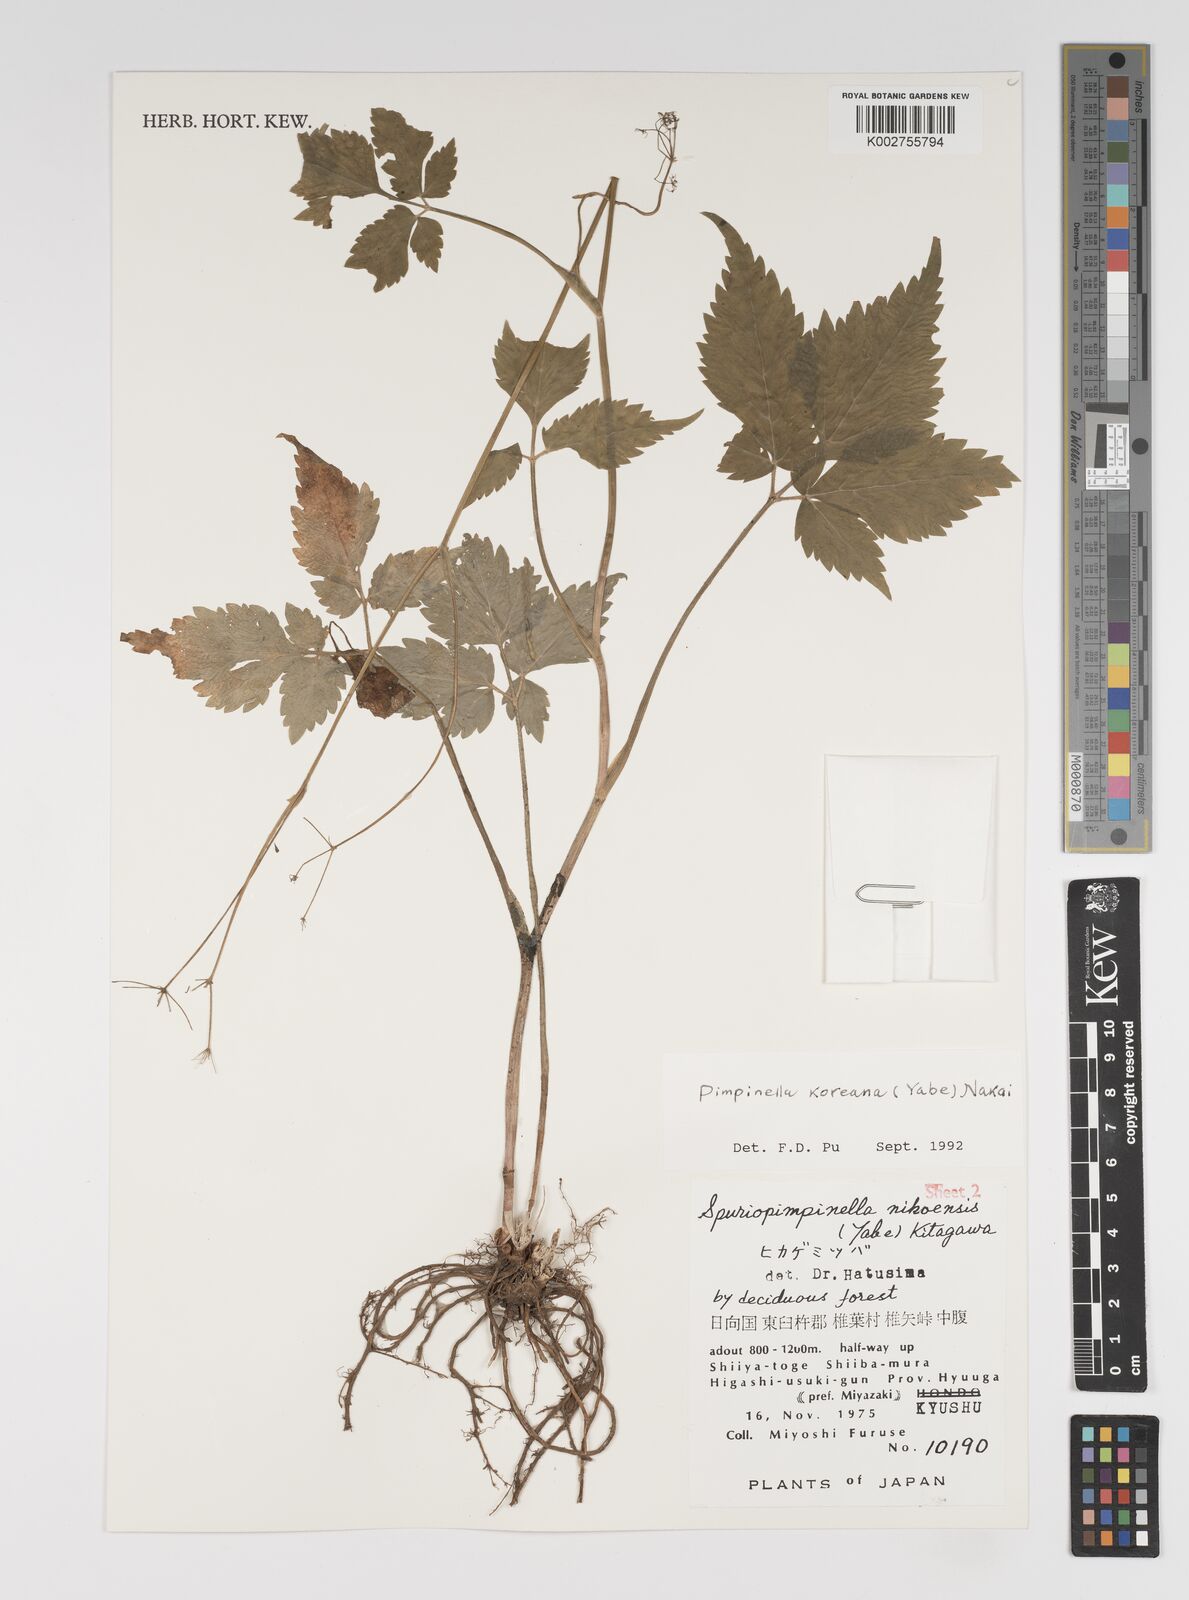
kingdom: Plantae
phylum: Tracheophyta
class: Magnoliopsida
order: Apiales
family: Apiaceae
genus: Spuriopimpinella
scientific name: Spuriopimpinella brachycarpa
